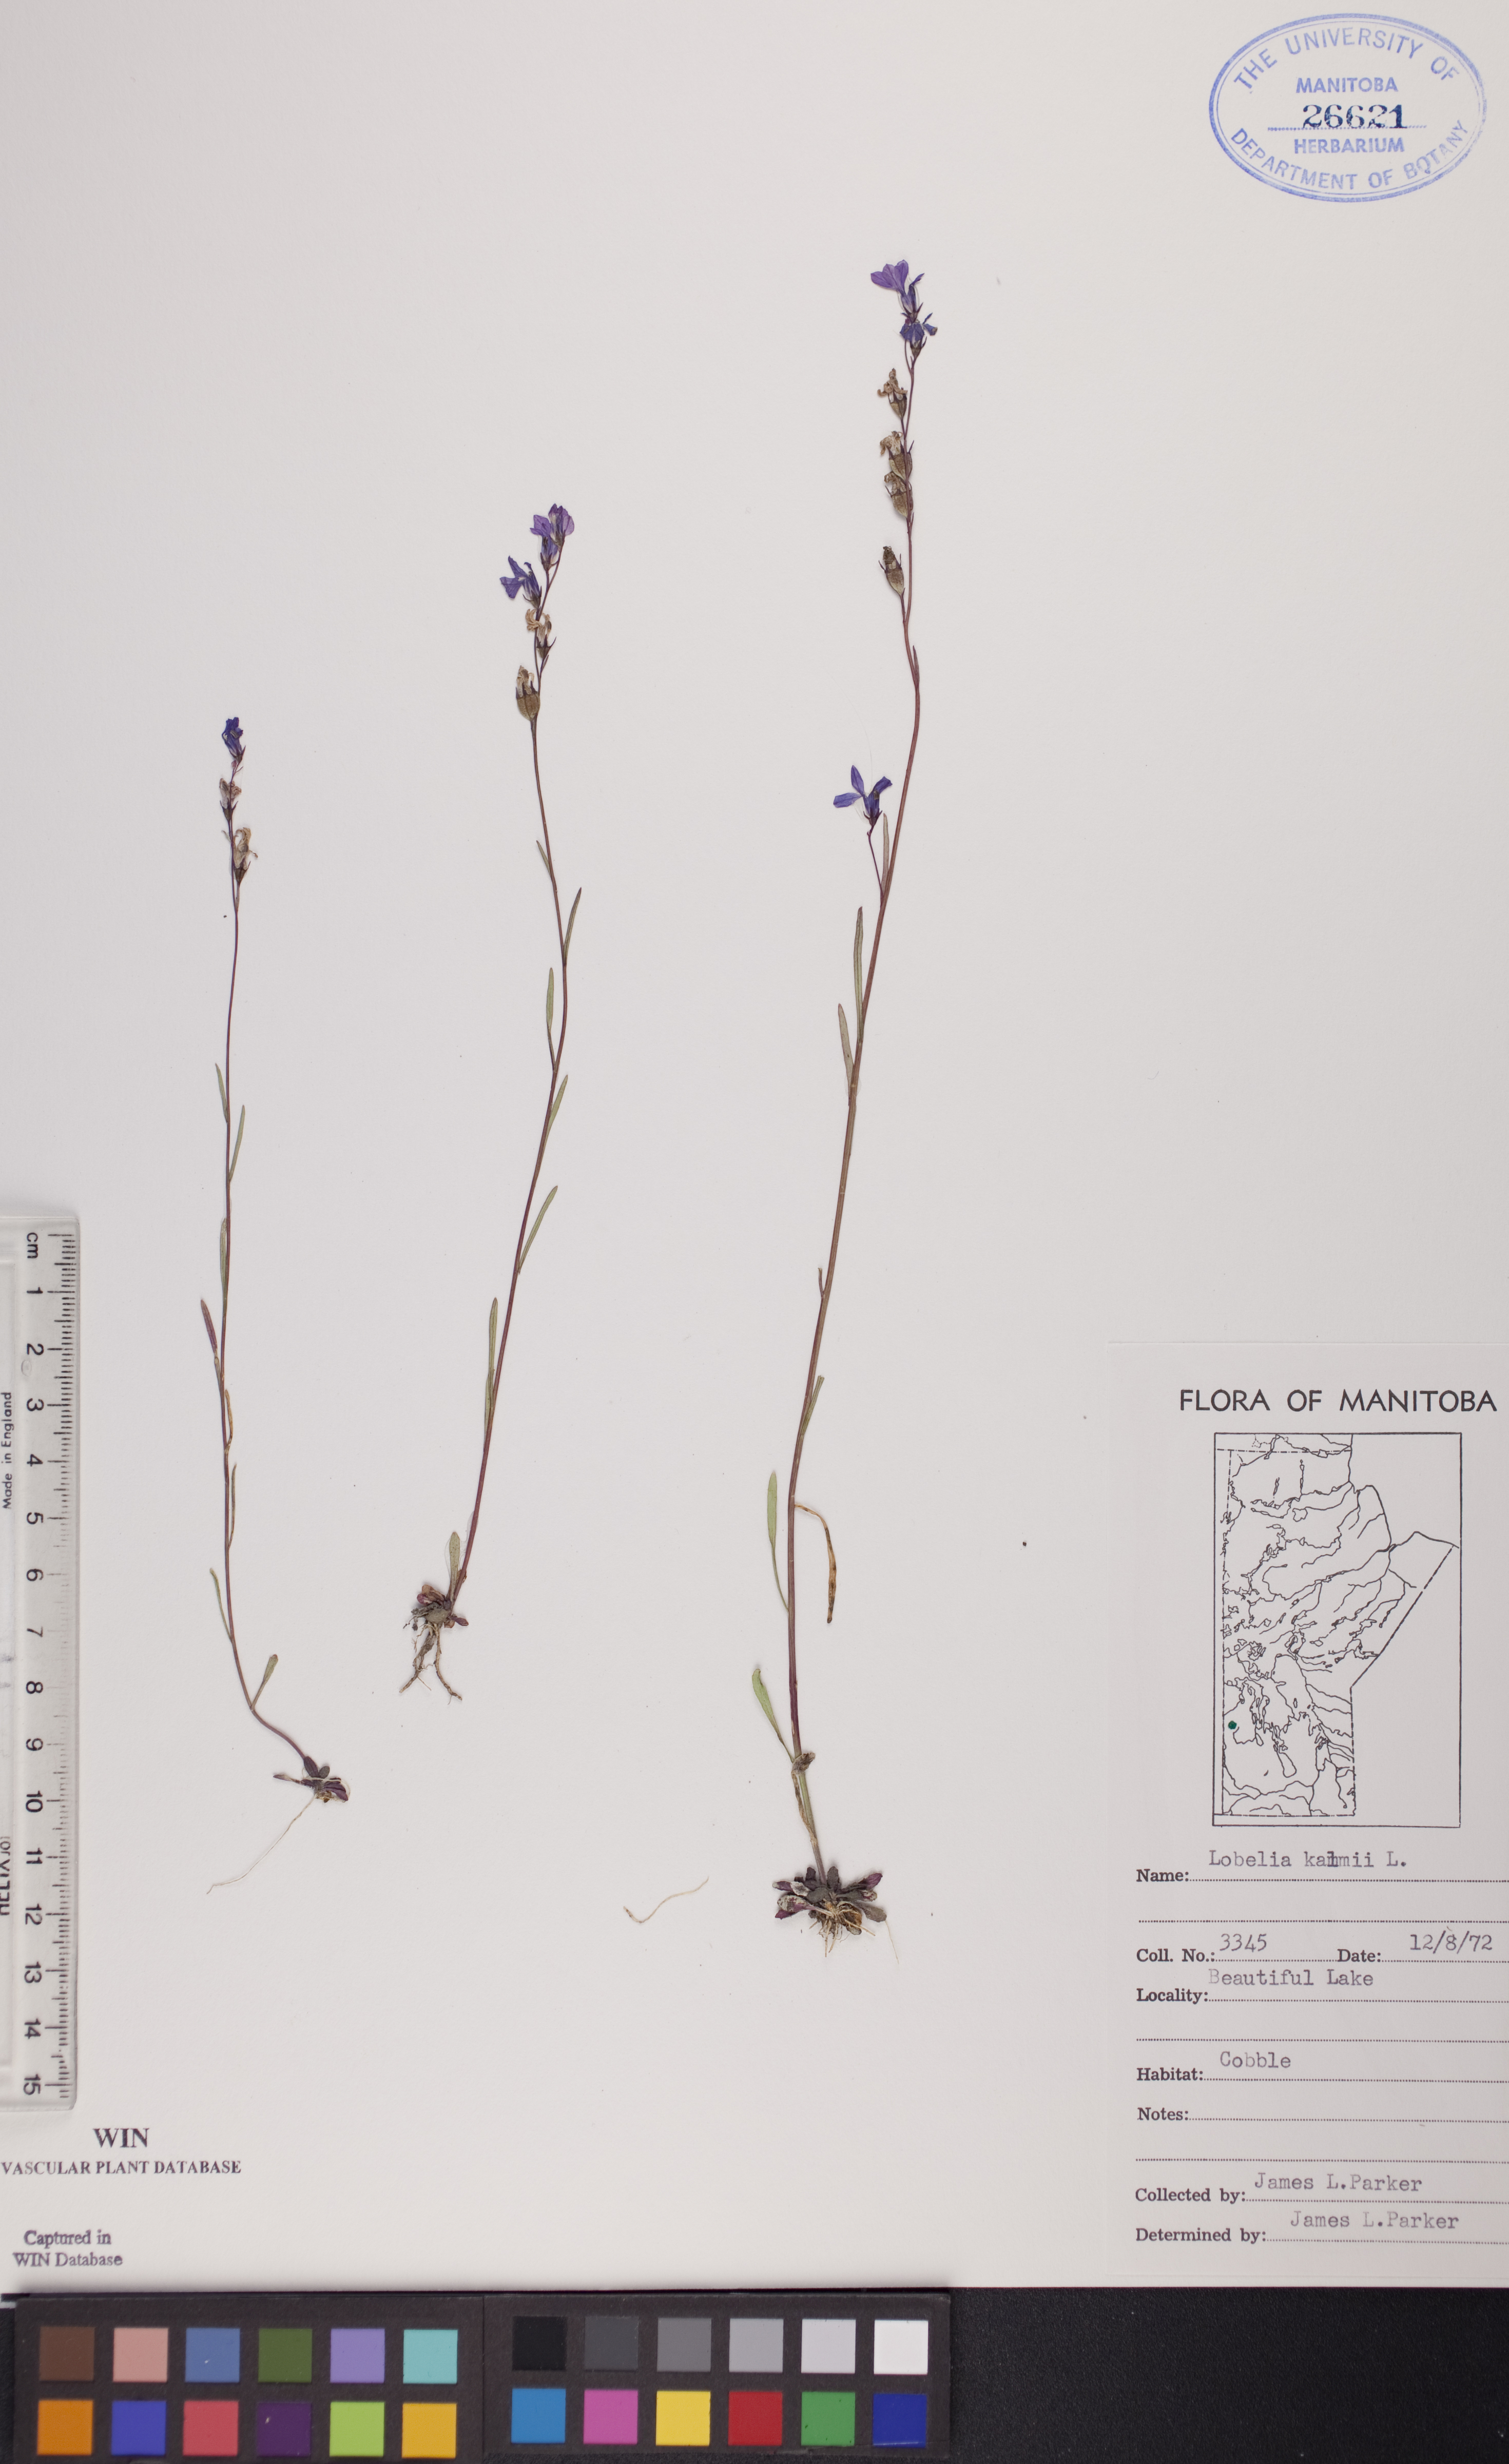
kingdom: Plantae
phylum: Tracheophyta
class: Magnoliopsida
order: Asterales
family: Campanulaceae
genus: Lobelia
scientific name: Lobelia kalmii
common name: Kalm's lobelia
